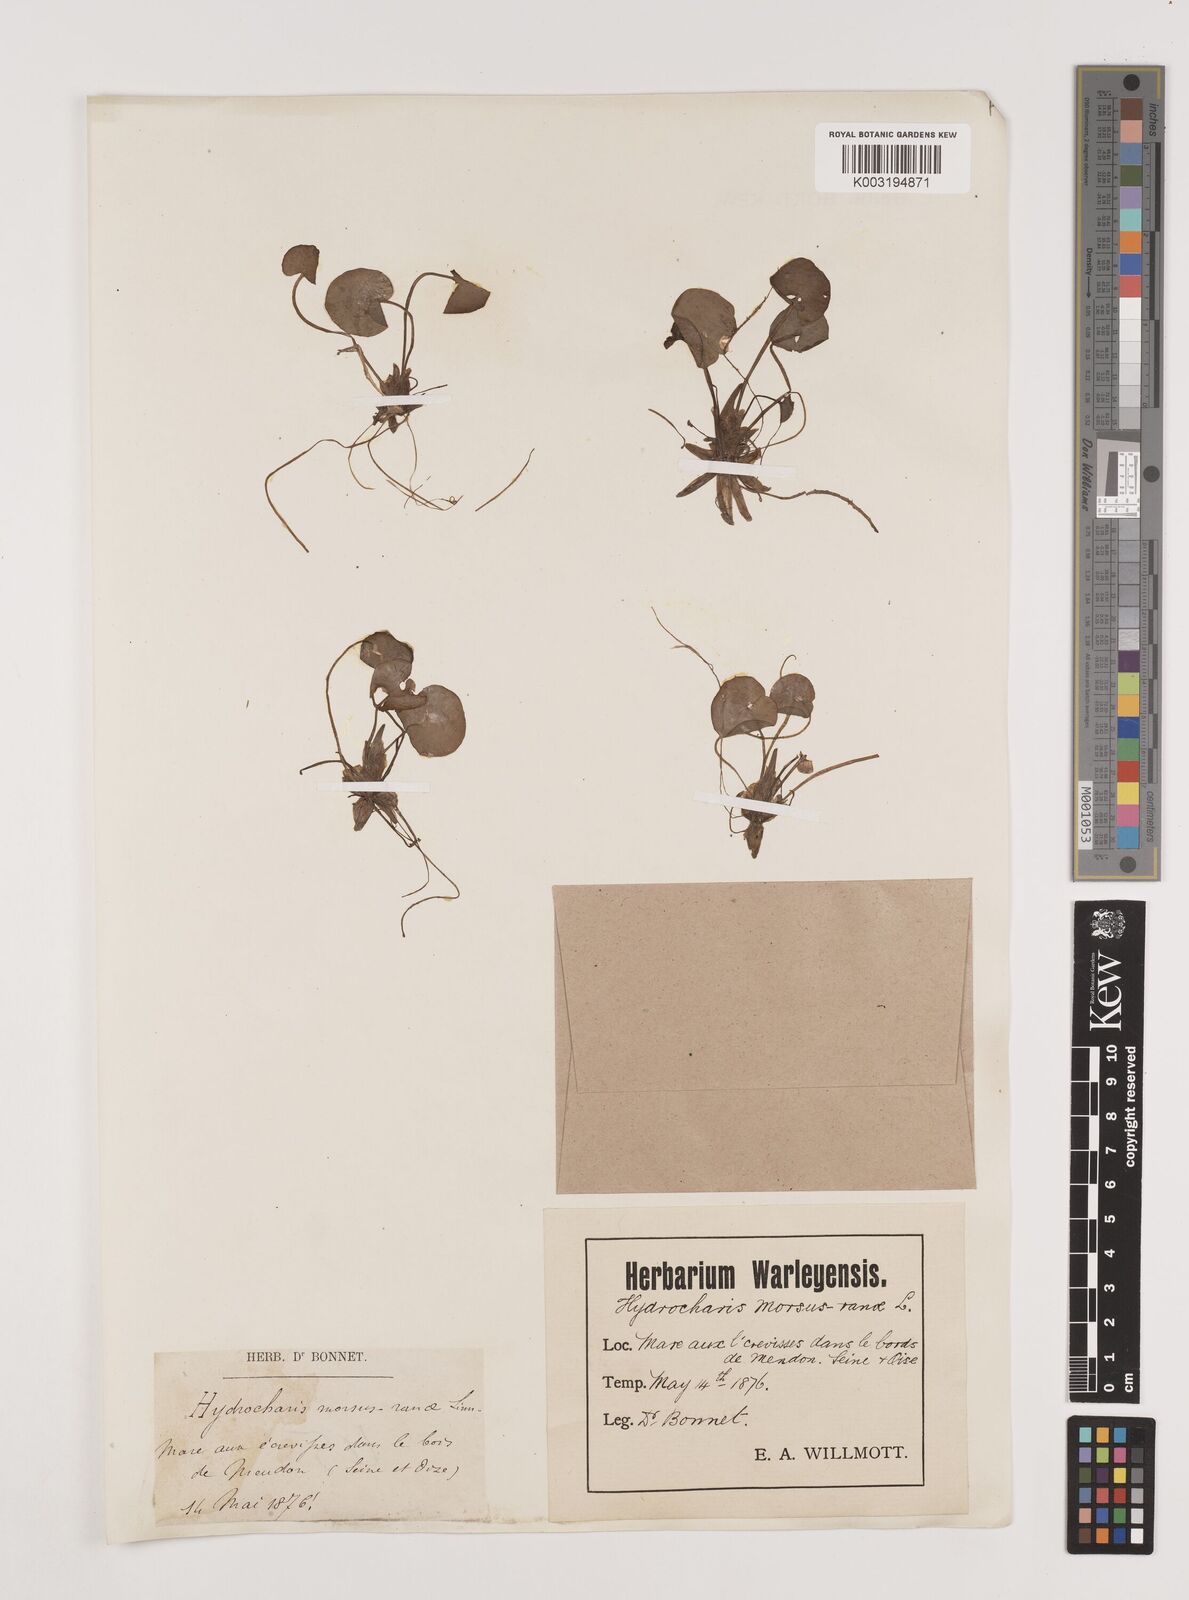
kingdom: Plantae
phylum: Tracheophyta
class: Liliopsida
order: Alismatales
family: Hydrocharitaceae
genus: Hydrocharis
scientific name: Hydrocharis morsus-ranae
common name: Frogbit
